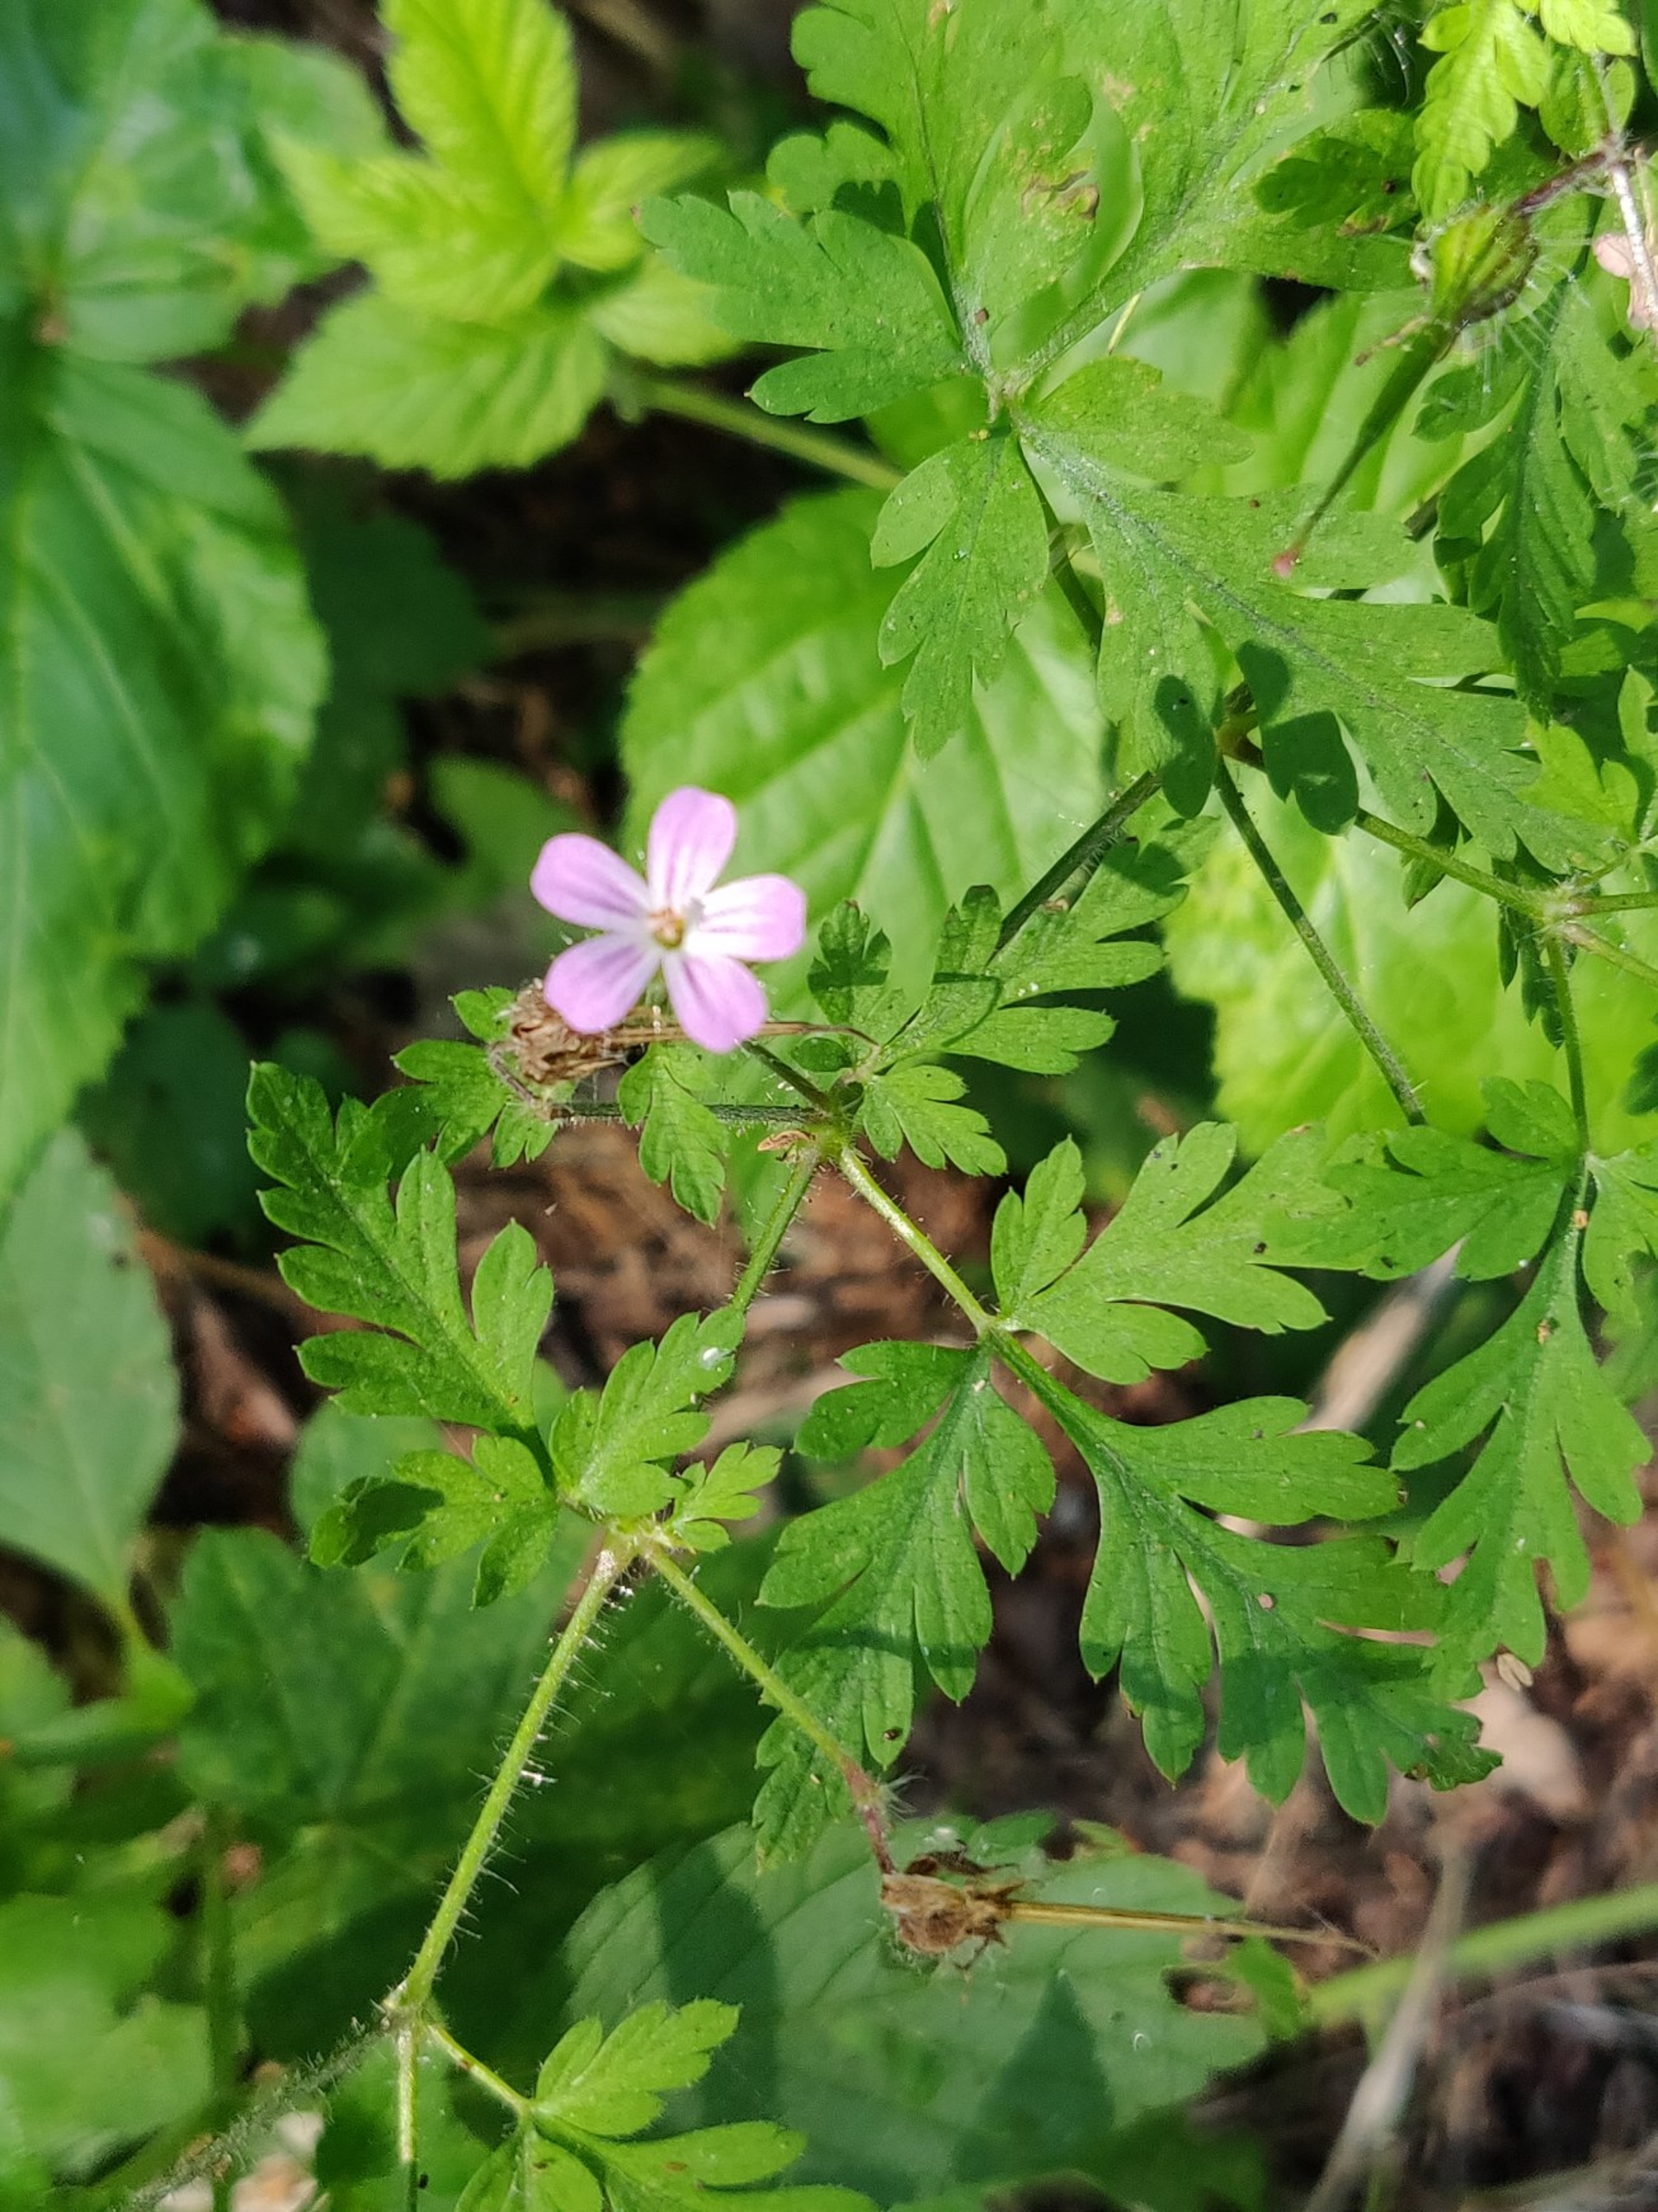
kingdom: Plantae
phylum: Tracheophyta
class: Magnoliopsida
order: Geraniales
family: Geraniaceae
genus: Geranium
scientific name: Geranium robertianum
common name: Stinkende storkenæb
